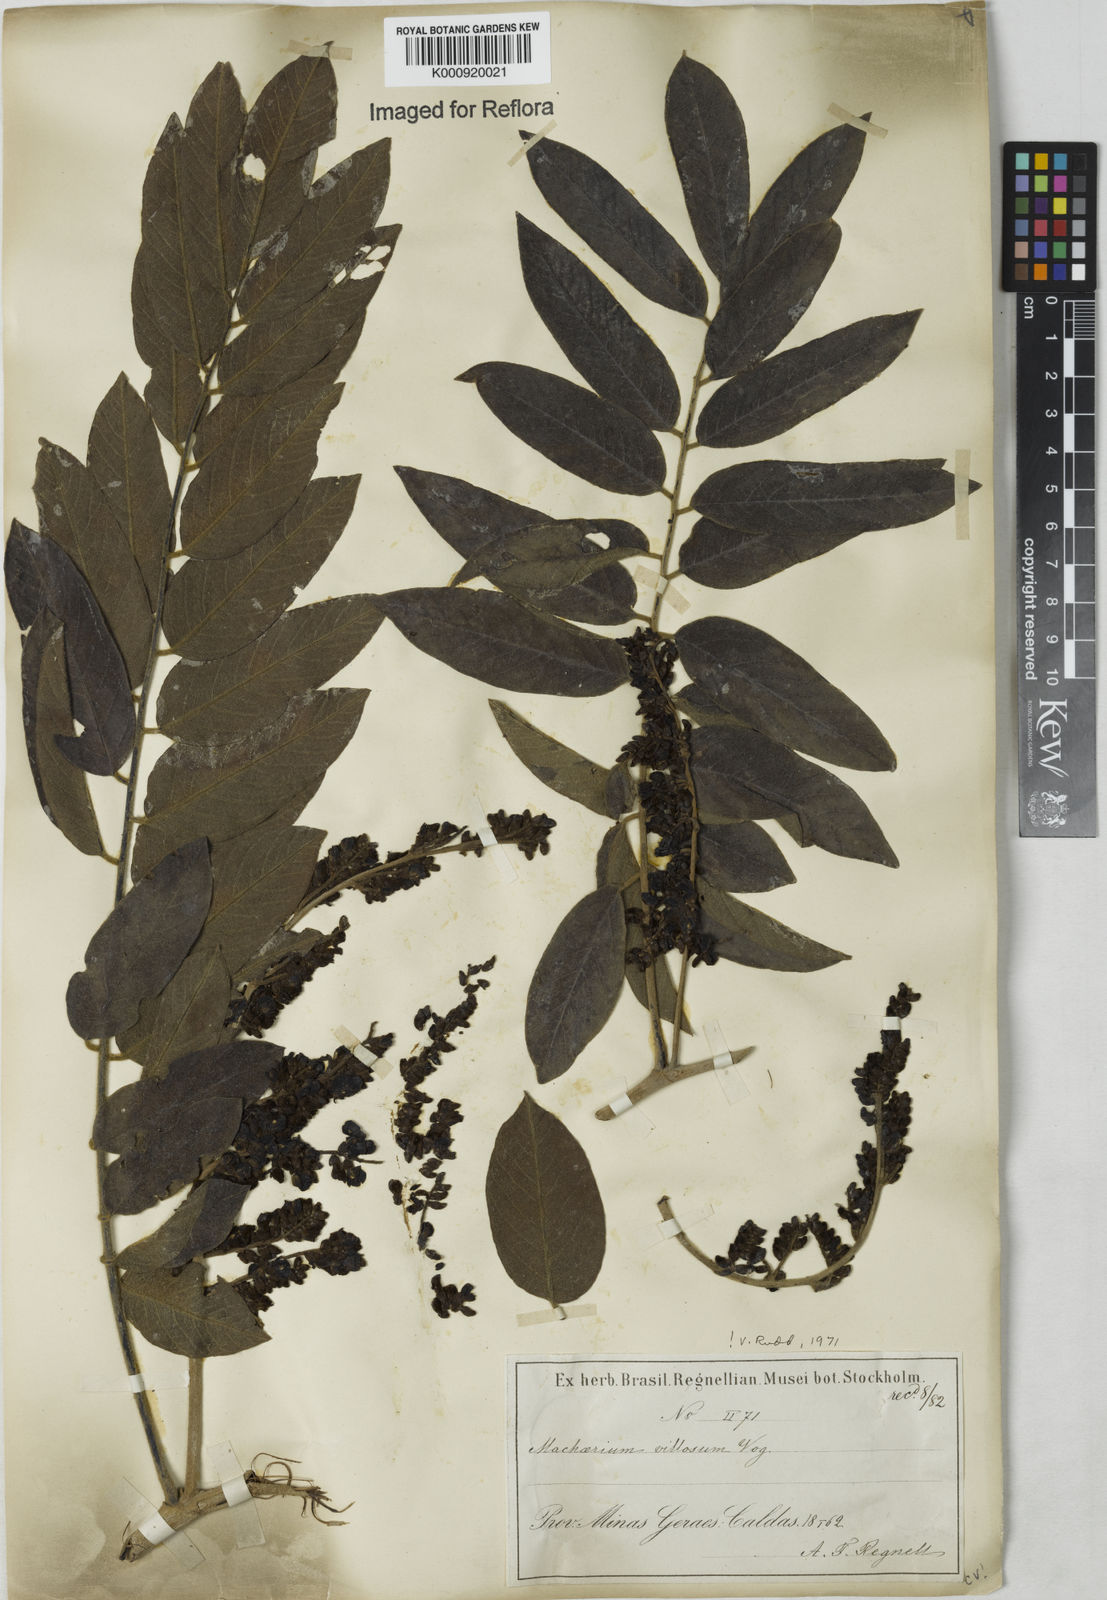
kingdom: Plantae
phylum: Tracheophyta
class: Magnoliopsida
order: Fabales
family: Fabaceae
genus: Machaerium
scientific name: Machaerium villosum
